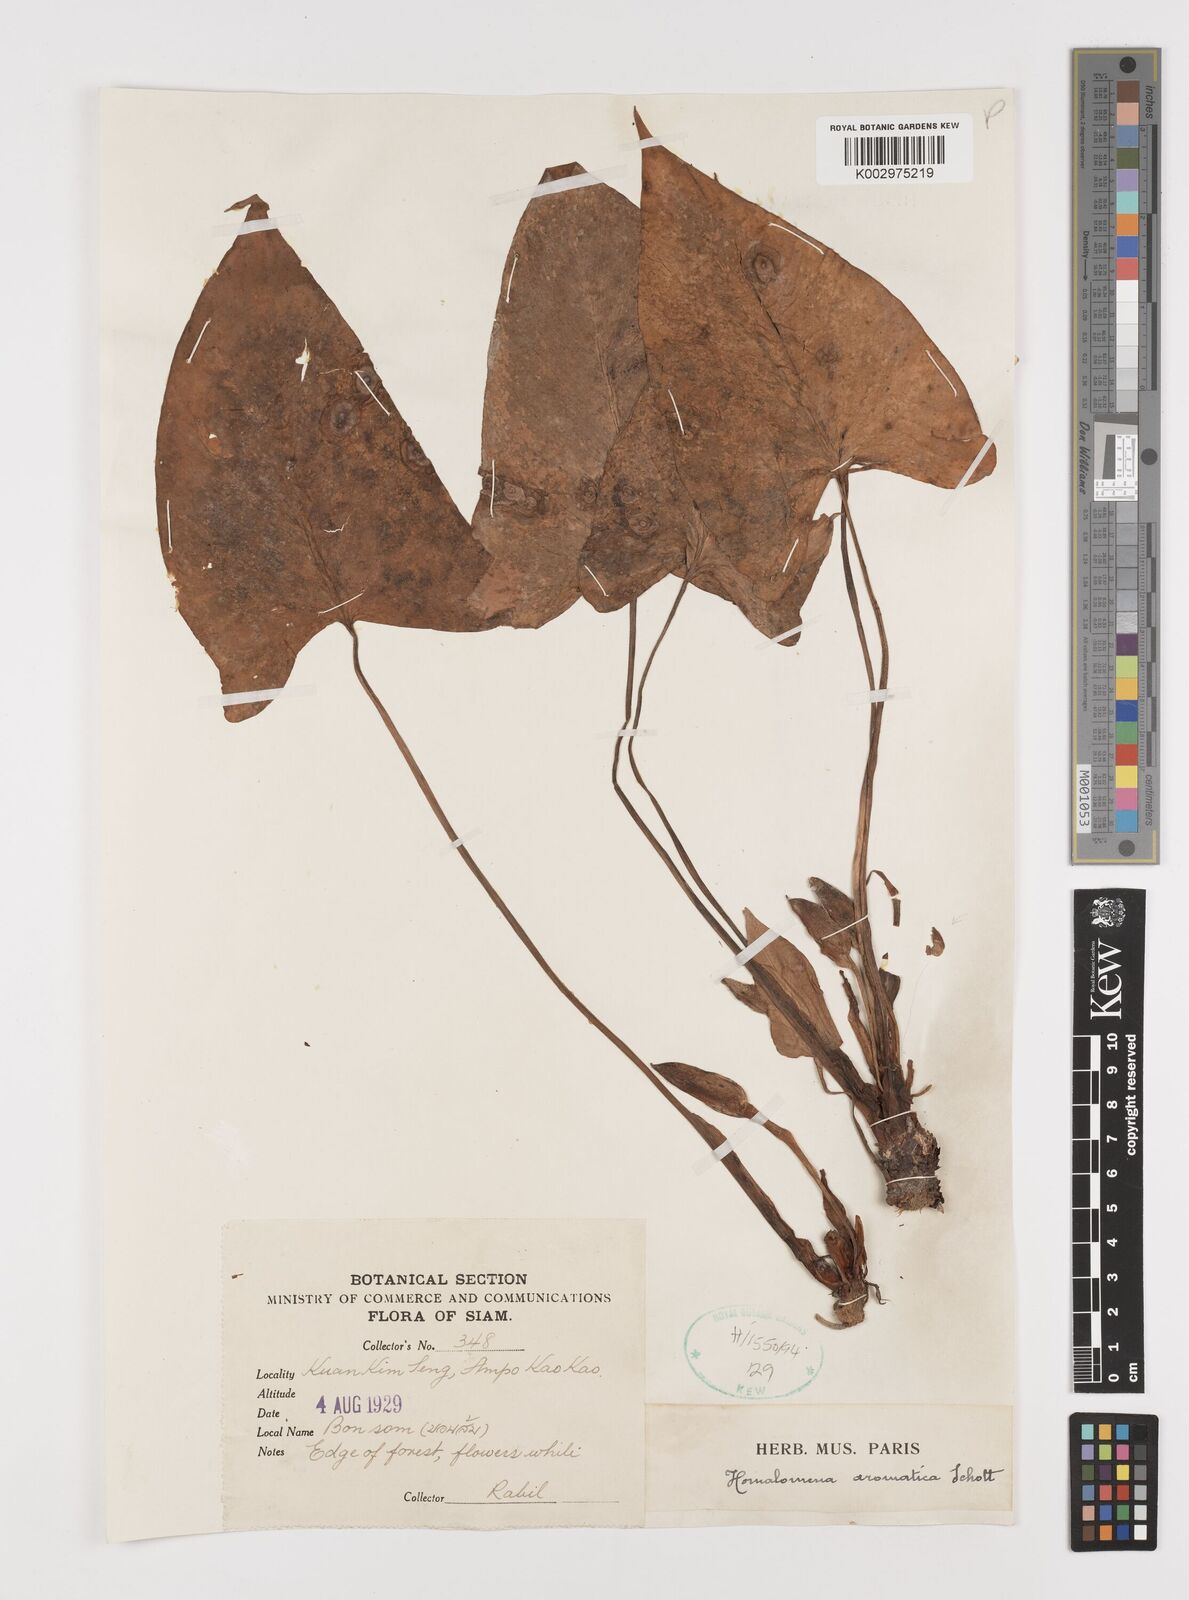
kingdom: Plantae
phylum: Tracheophyta
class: Liliopsida
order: Alismatales
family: Araceae
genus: Homalomena
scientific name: Homalomena aromatica
